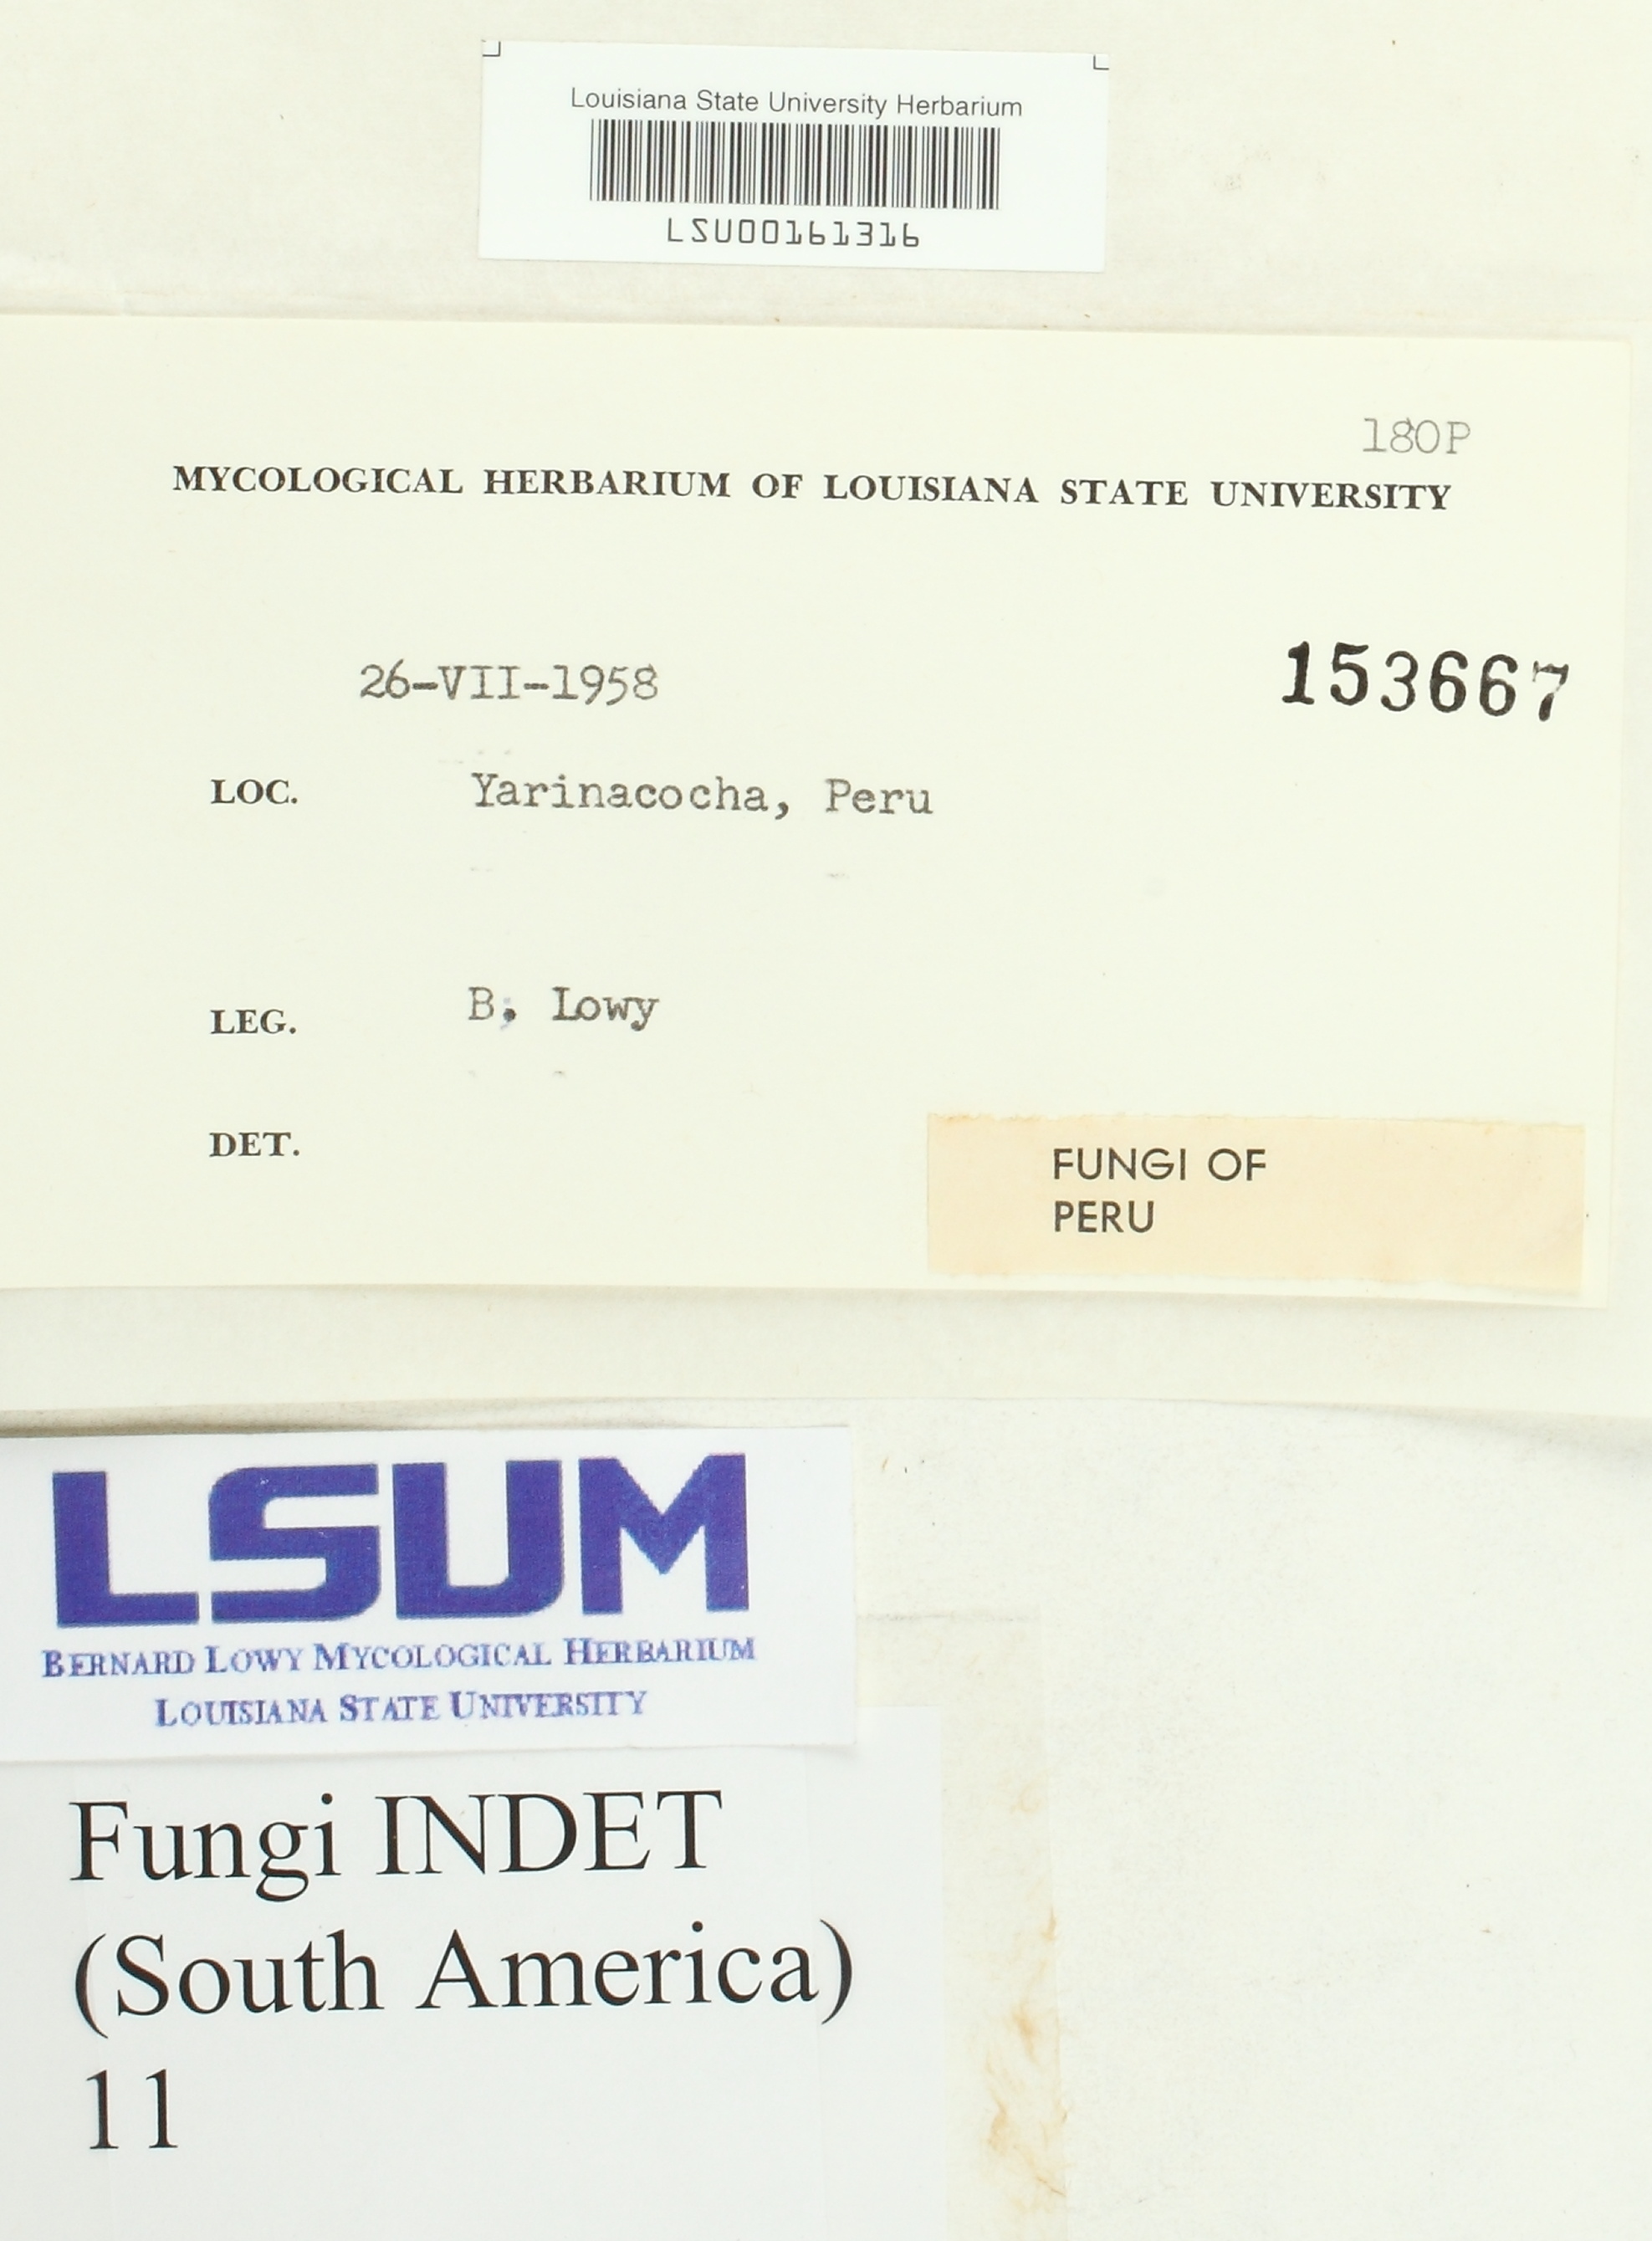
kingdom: Fungi
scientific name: Fungi
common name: Fungi
